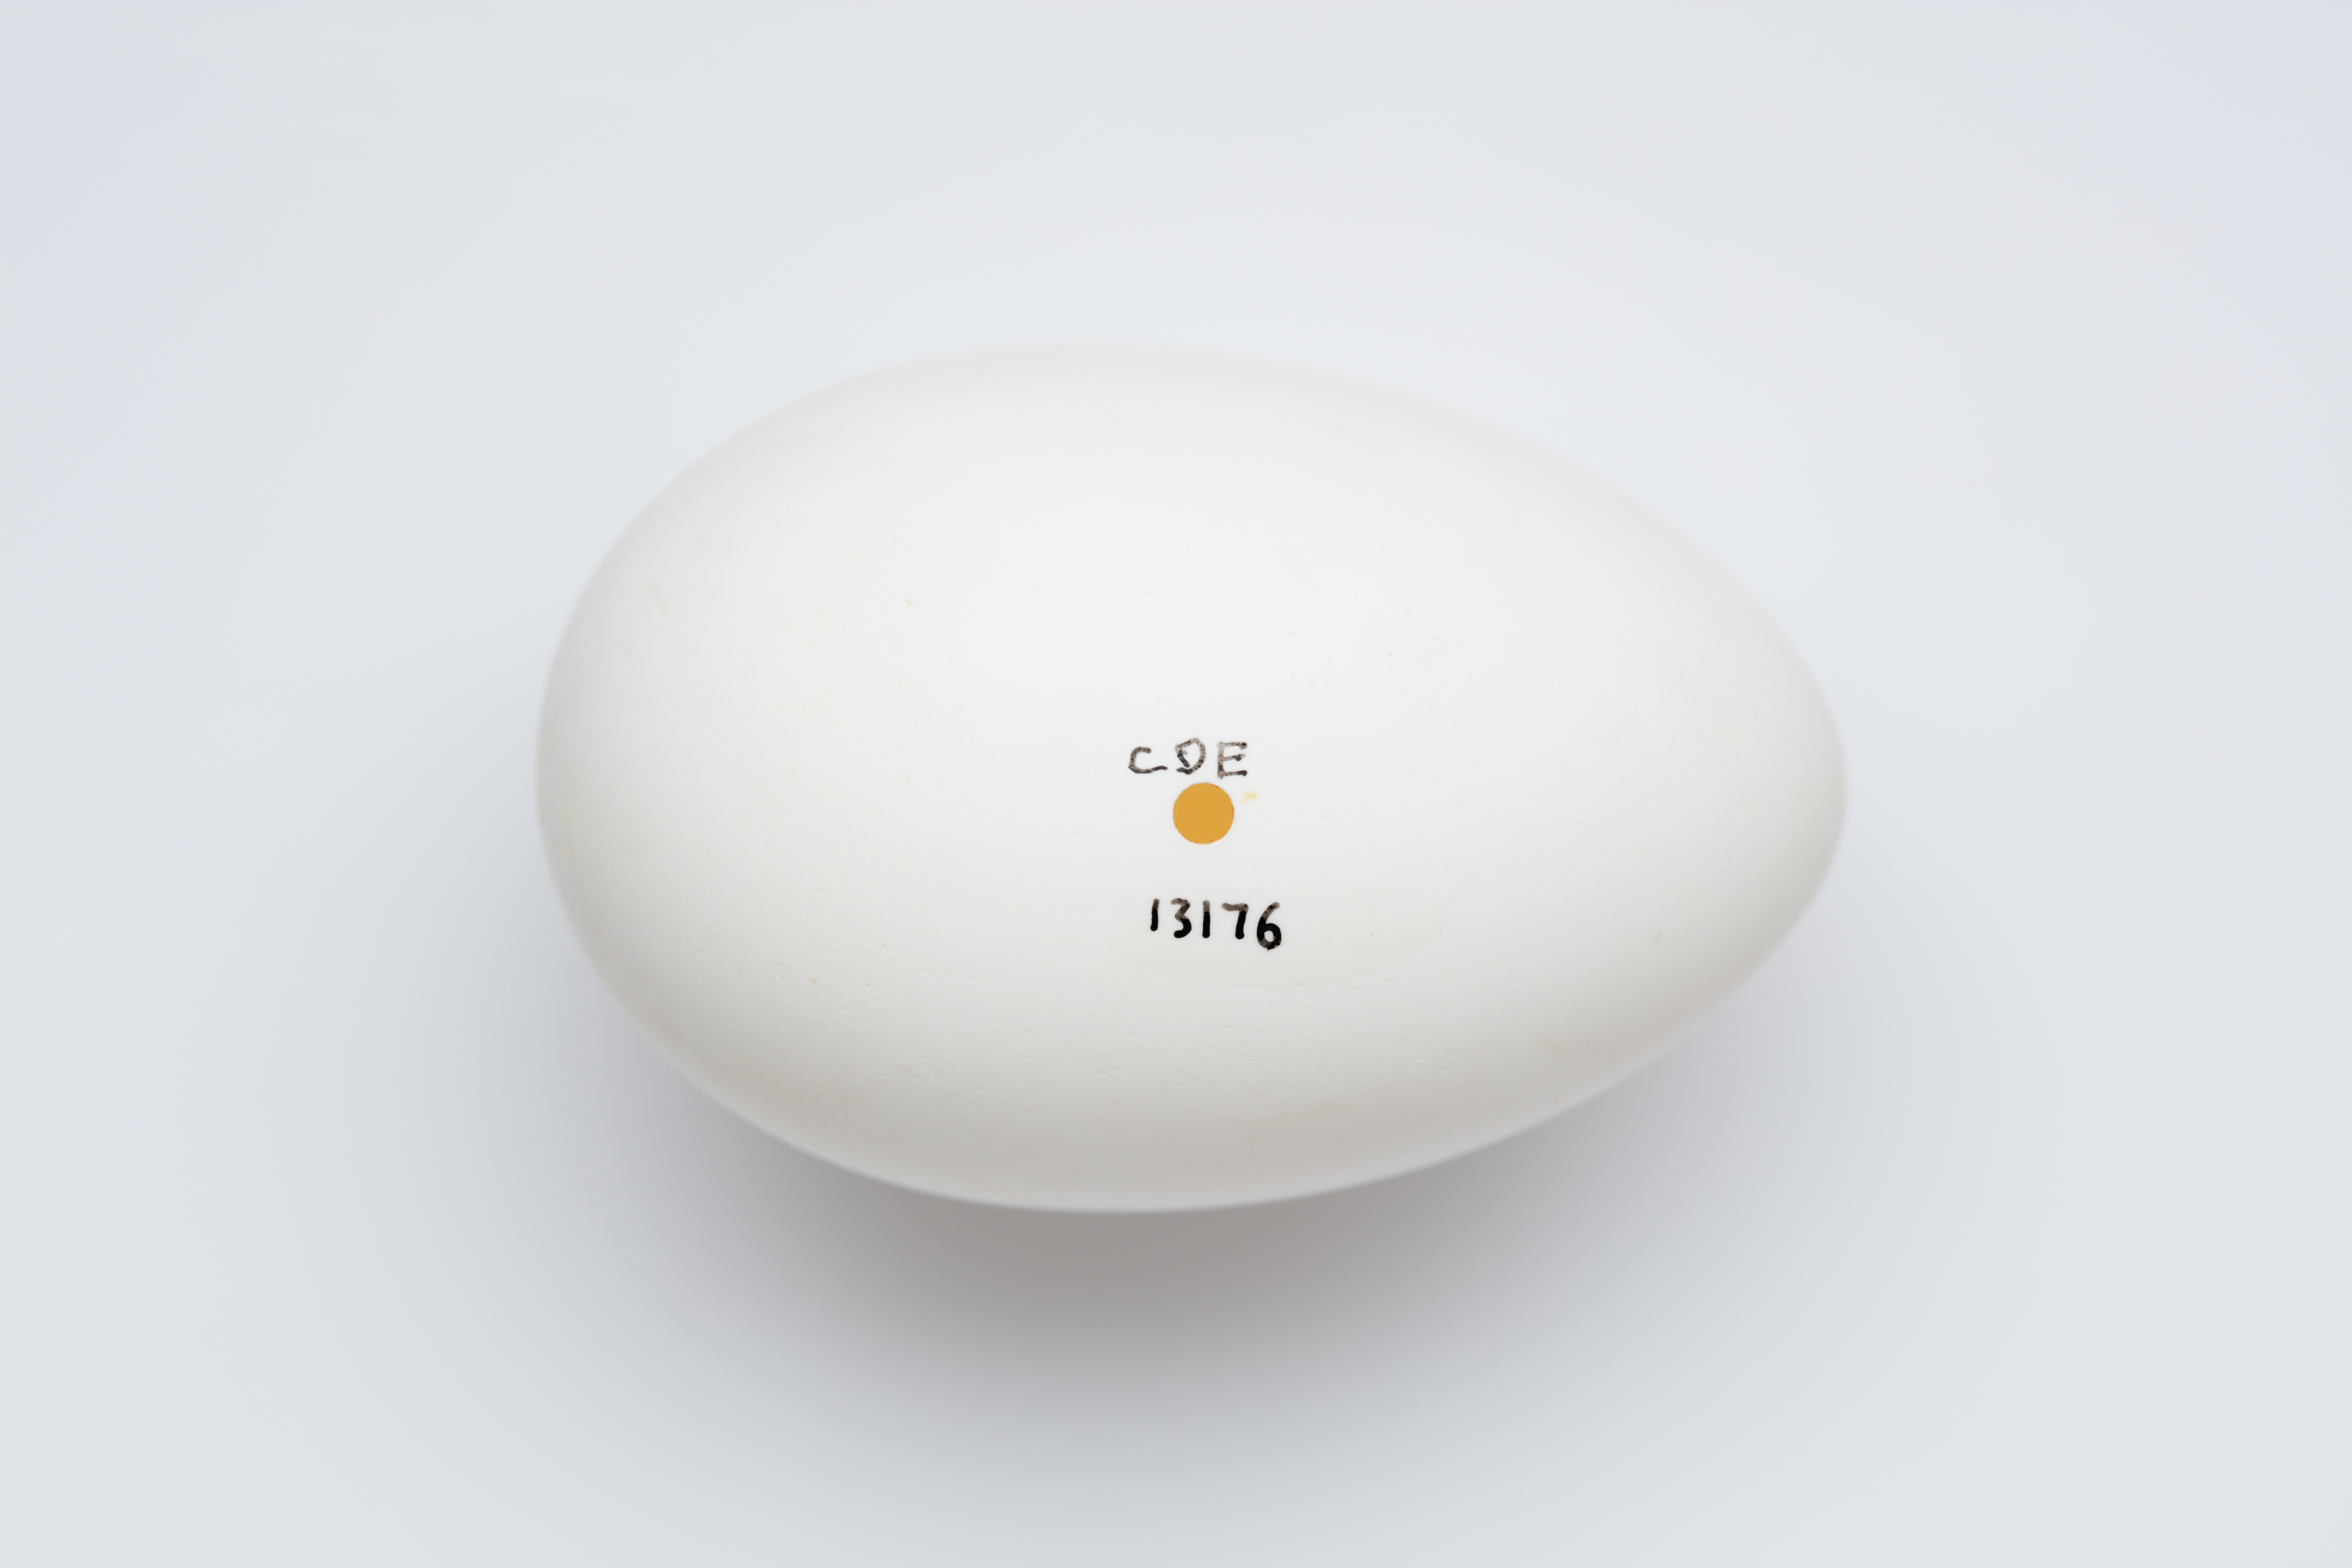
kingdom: Animalia
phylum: Chordata
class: Aves
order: Procellariiformes
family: Procellariidae
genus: Ardenna
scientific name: Ardenna
